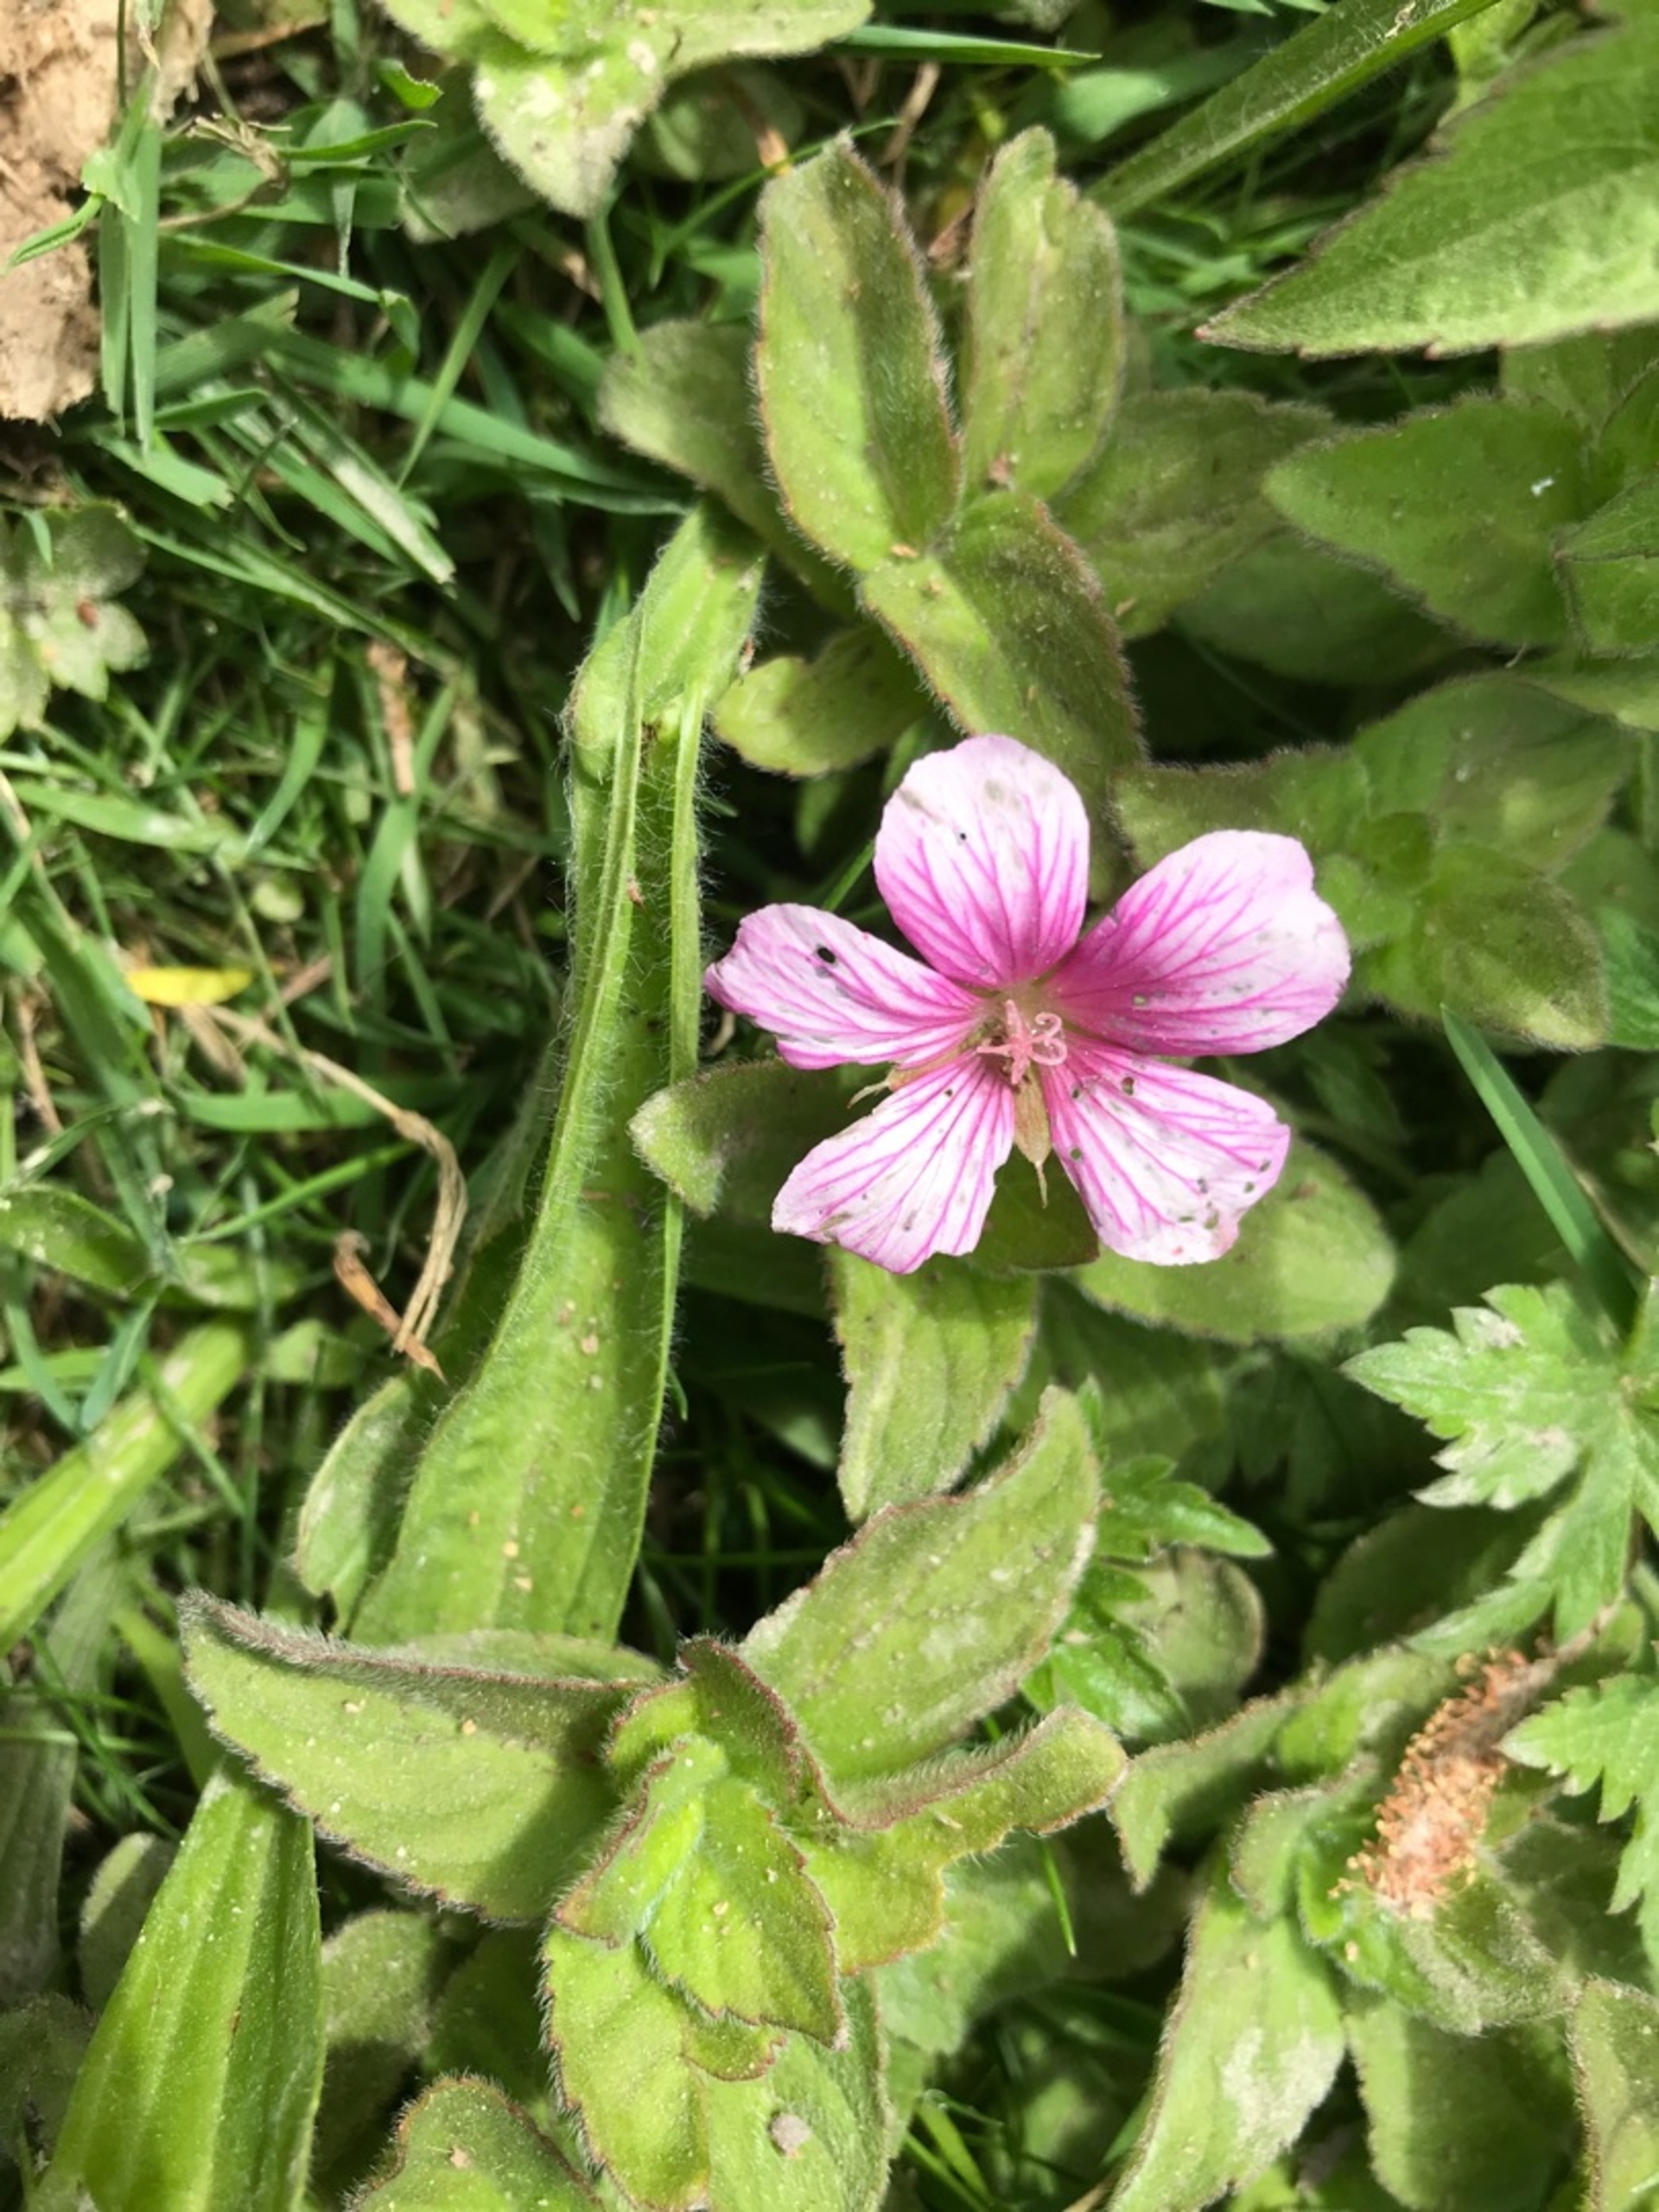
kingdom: Plantae
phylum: Tracheophyta
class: Magnoliopsida
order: Geraniales
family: Geraniaceae
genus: Geranium
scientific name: Geranium endressii
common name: Spansk storkenæb
